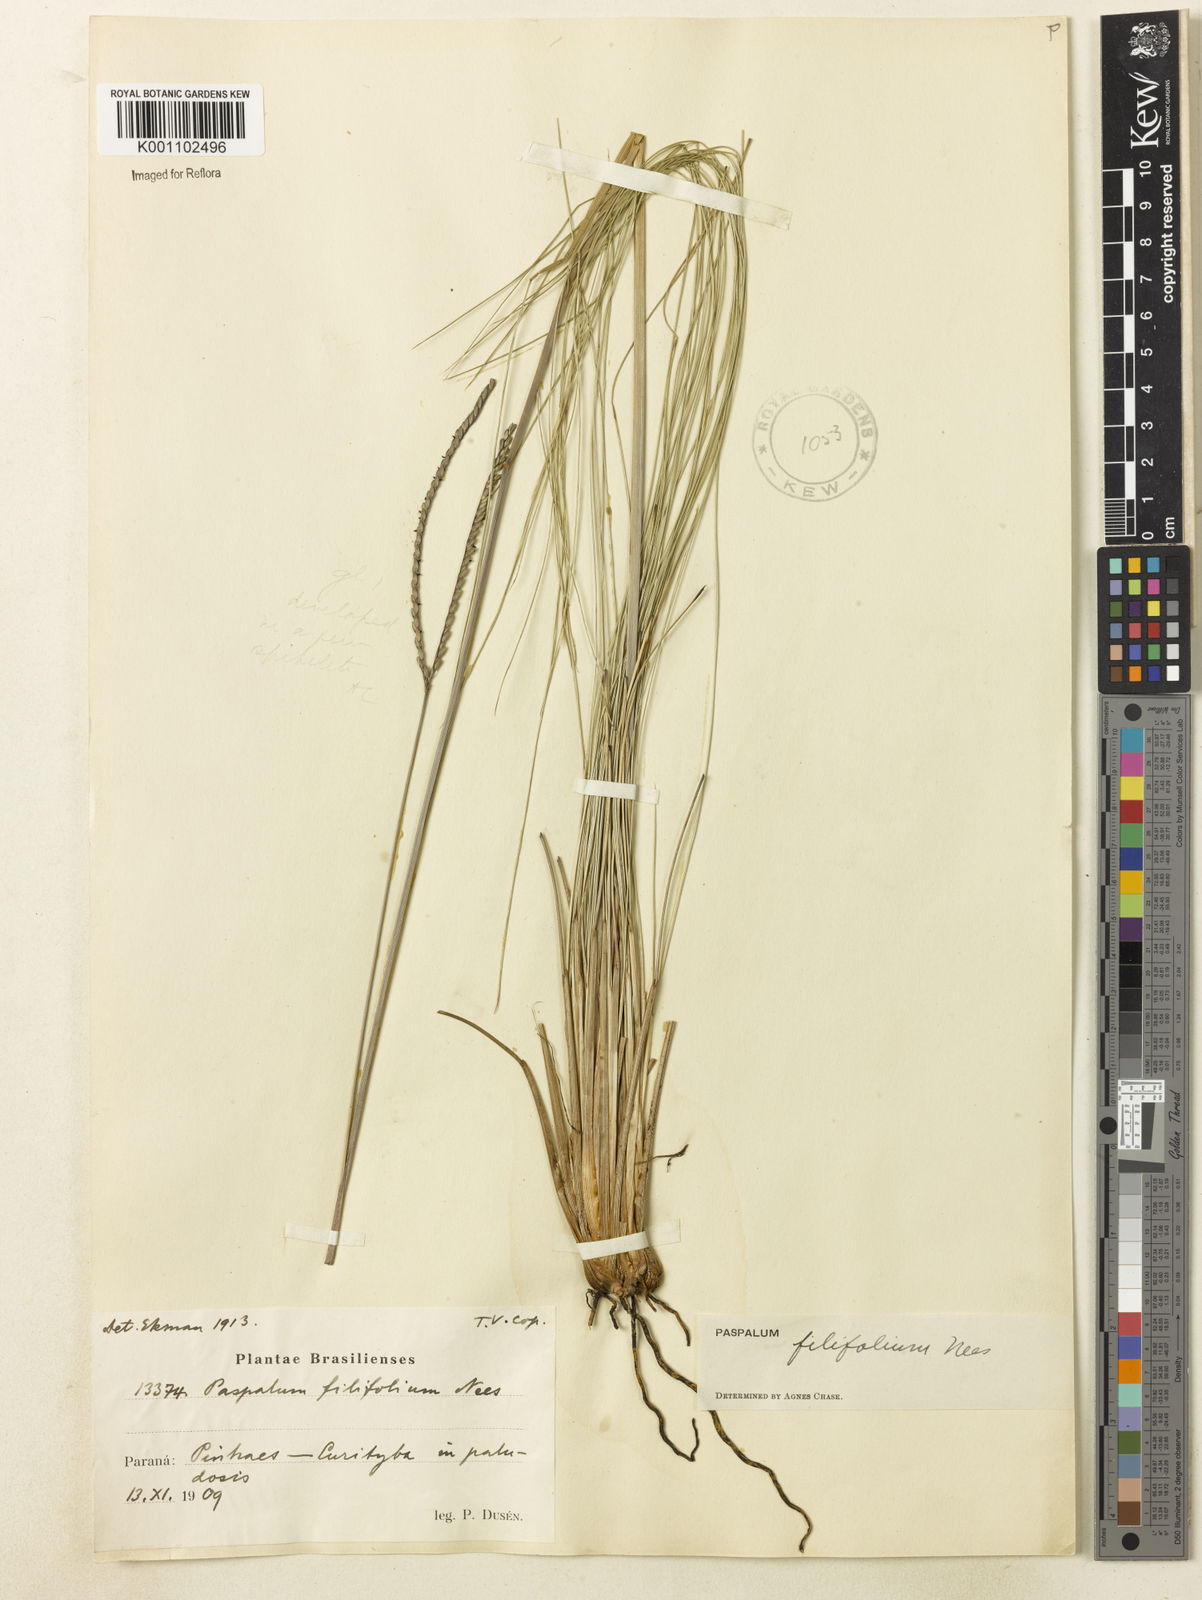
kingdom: Plantae
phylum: Tracheophyta
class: Liliopsida
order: Poales
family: Poaceae
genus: Paspalum
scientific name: Paspalum ellipticum
